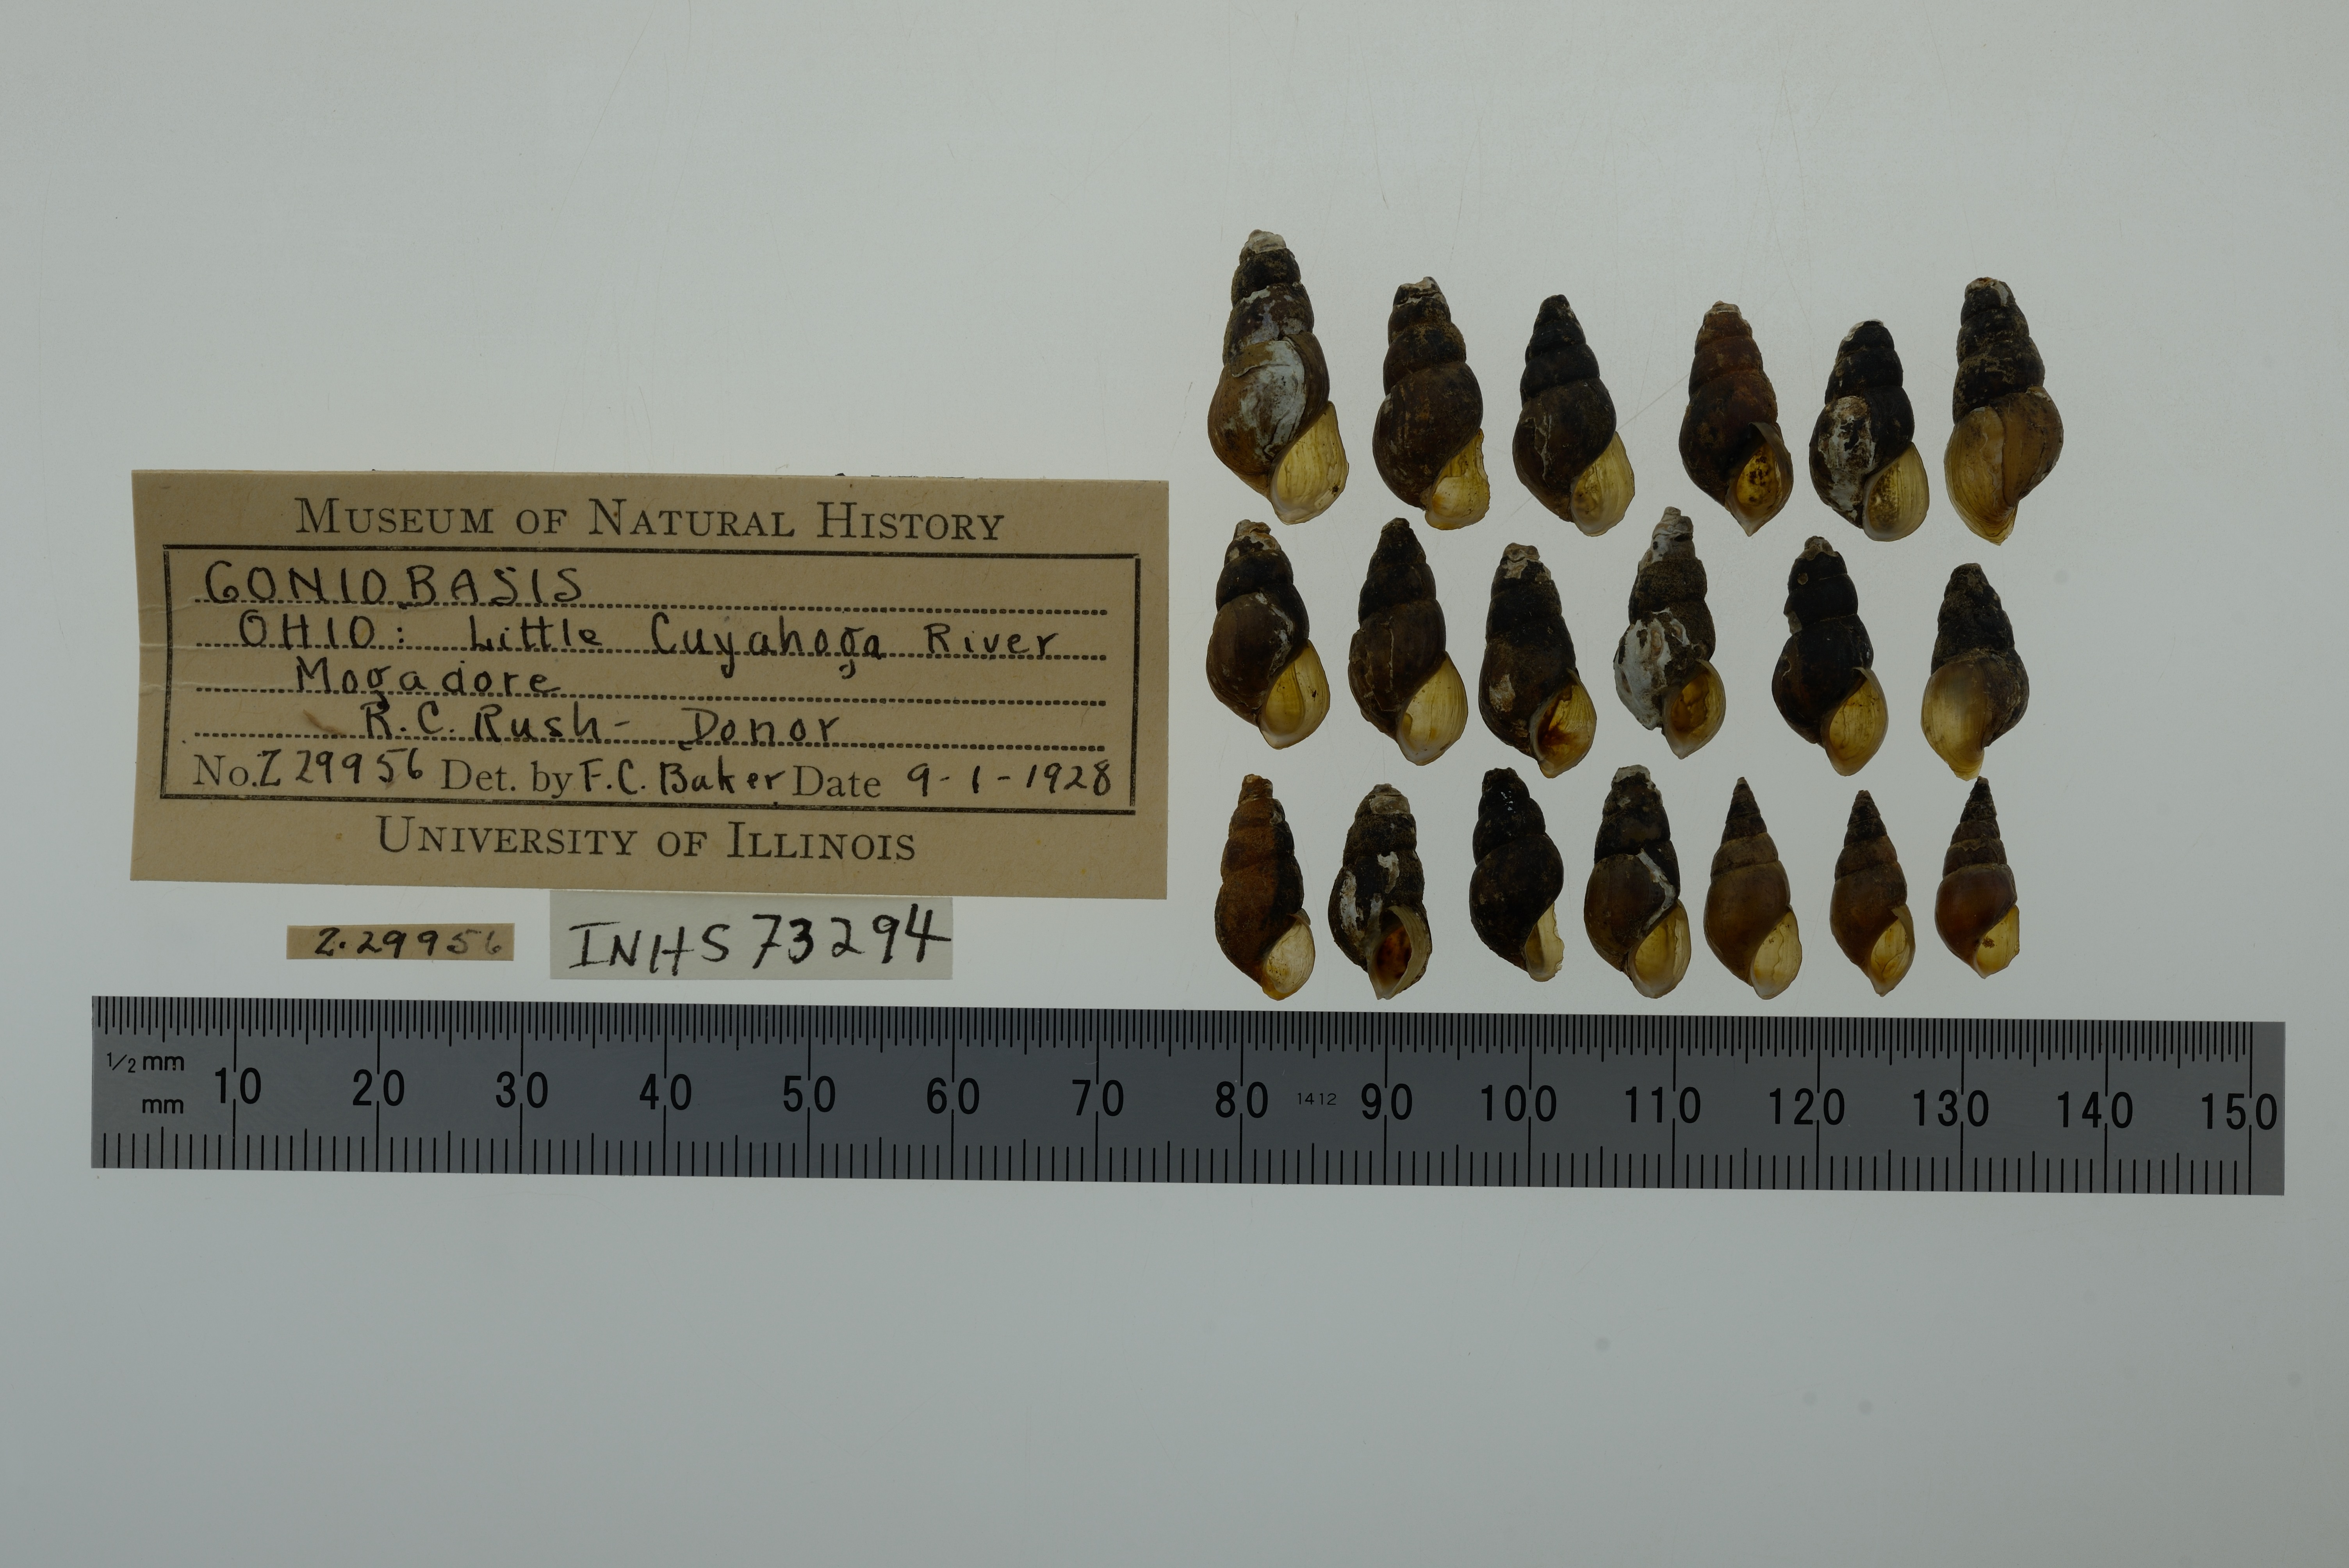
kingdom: Animalia
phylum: Mollusca
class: Gastropoda
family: Pleuroceridae
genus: Elimia
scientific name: Elimia
